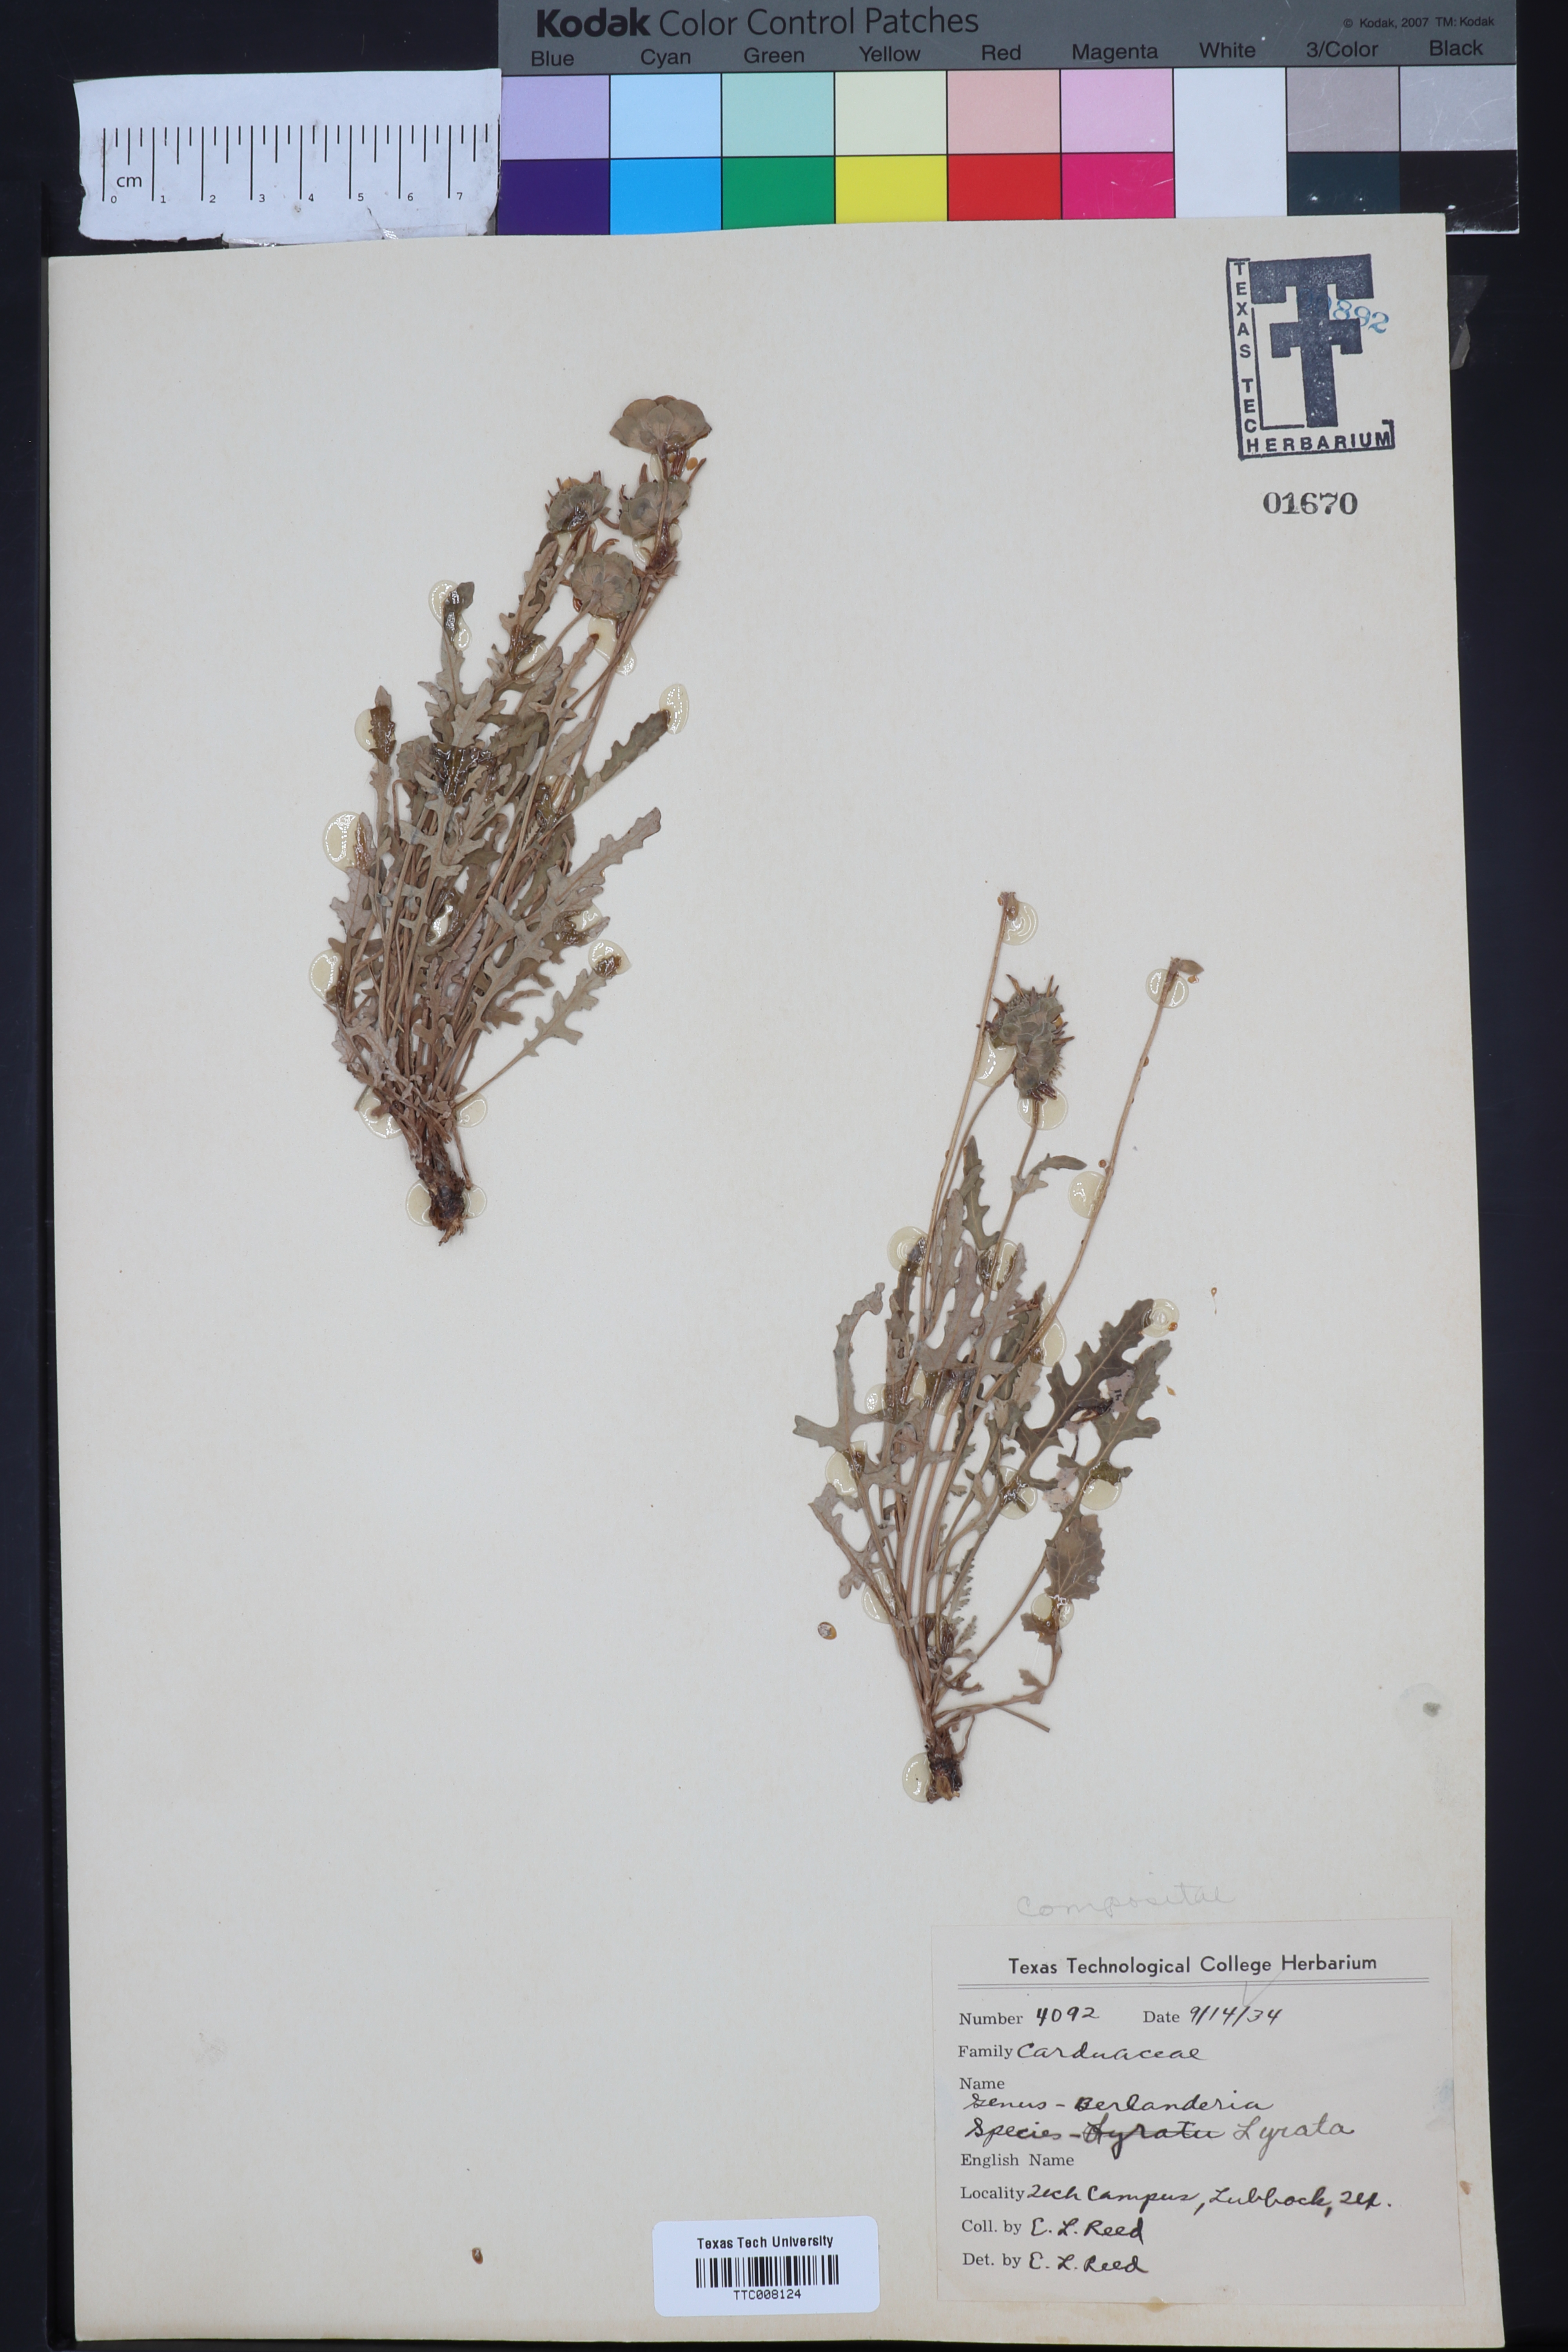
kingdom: Plantae
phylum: Tracheophyta
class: Magnoliopsida
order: Asterales
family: Asteraceae
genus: Berlandiera
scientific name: Berlandiera lyrata
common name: Chocolate-flower
